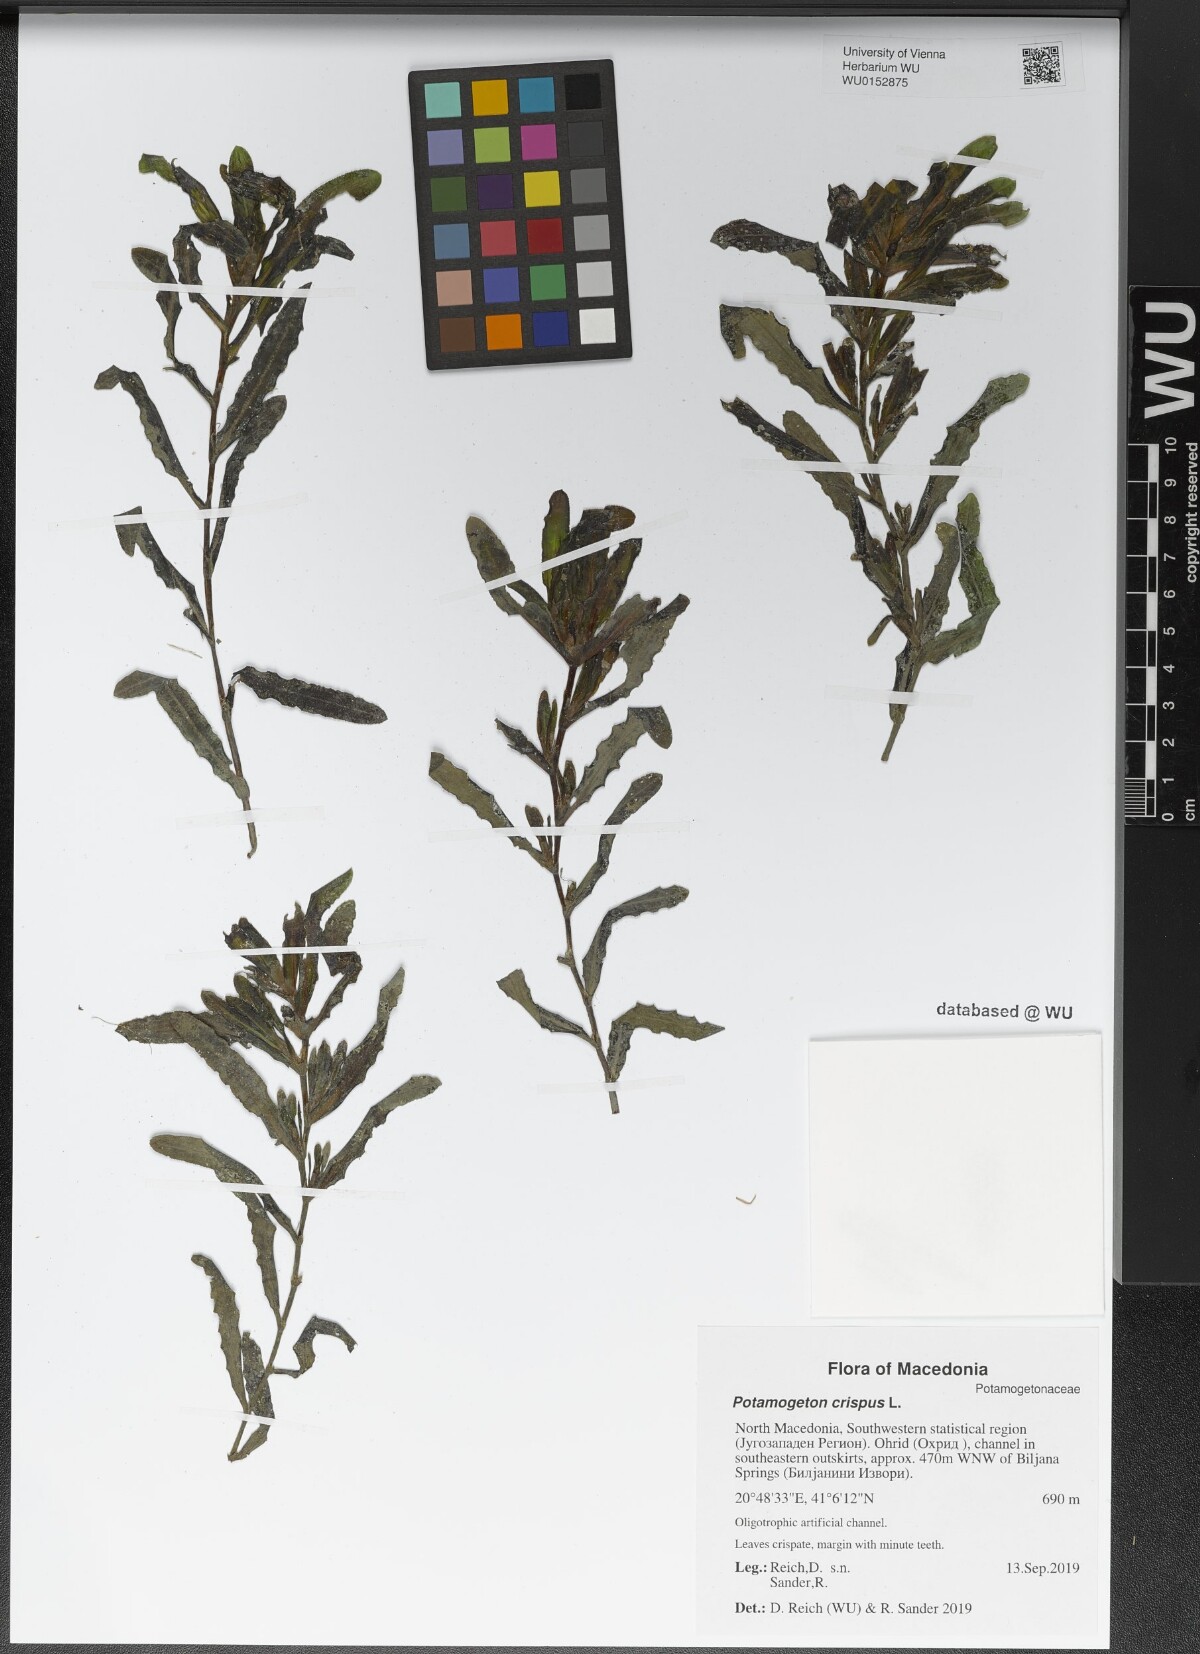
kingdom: Plantae
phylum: Tracheophyta
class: Liliopsida
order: Alismatales
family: Potamogetonaceae
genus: Potamogeton
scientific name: Potamogeton crispus
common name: Curled pondweed
